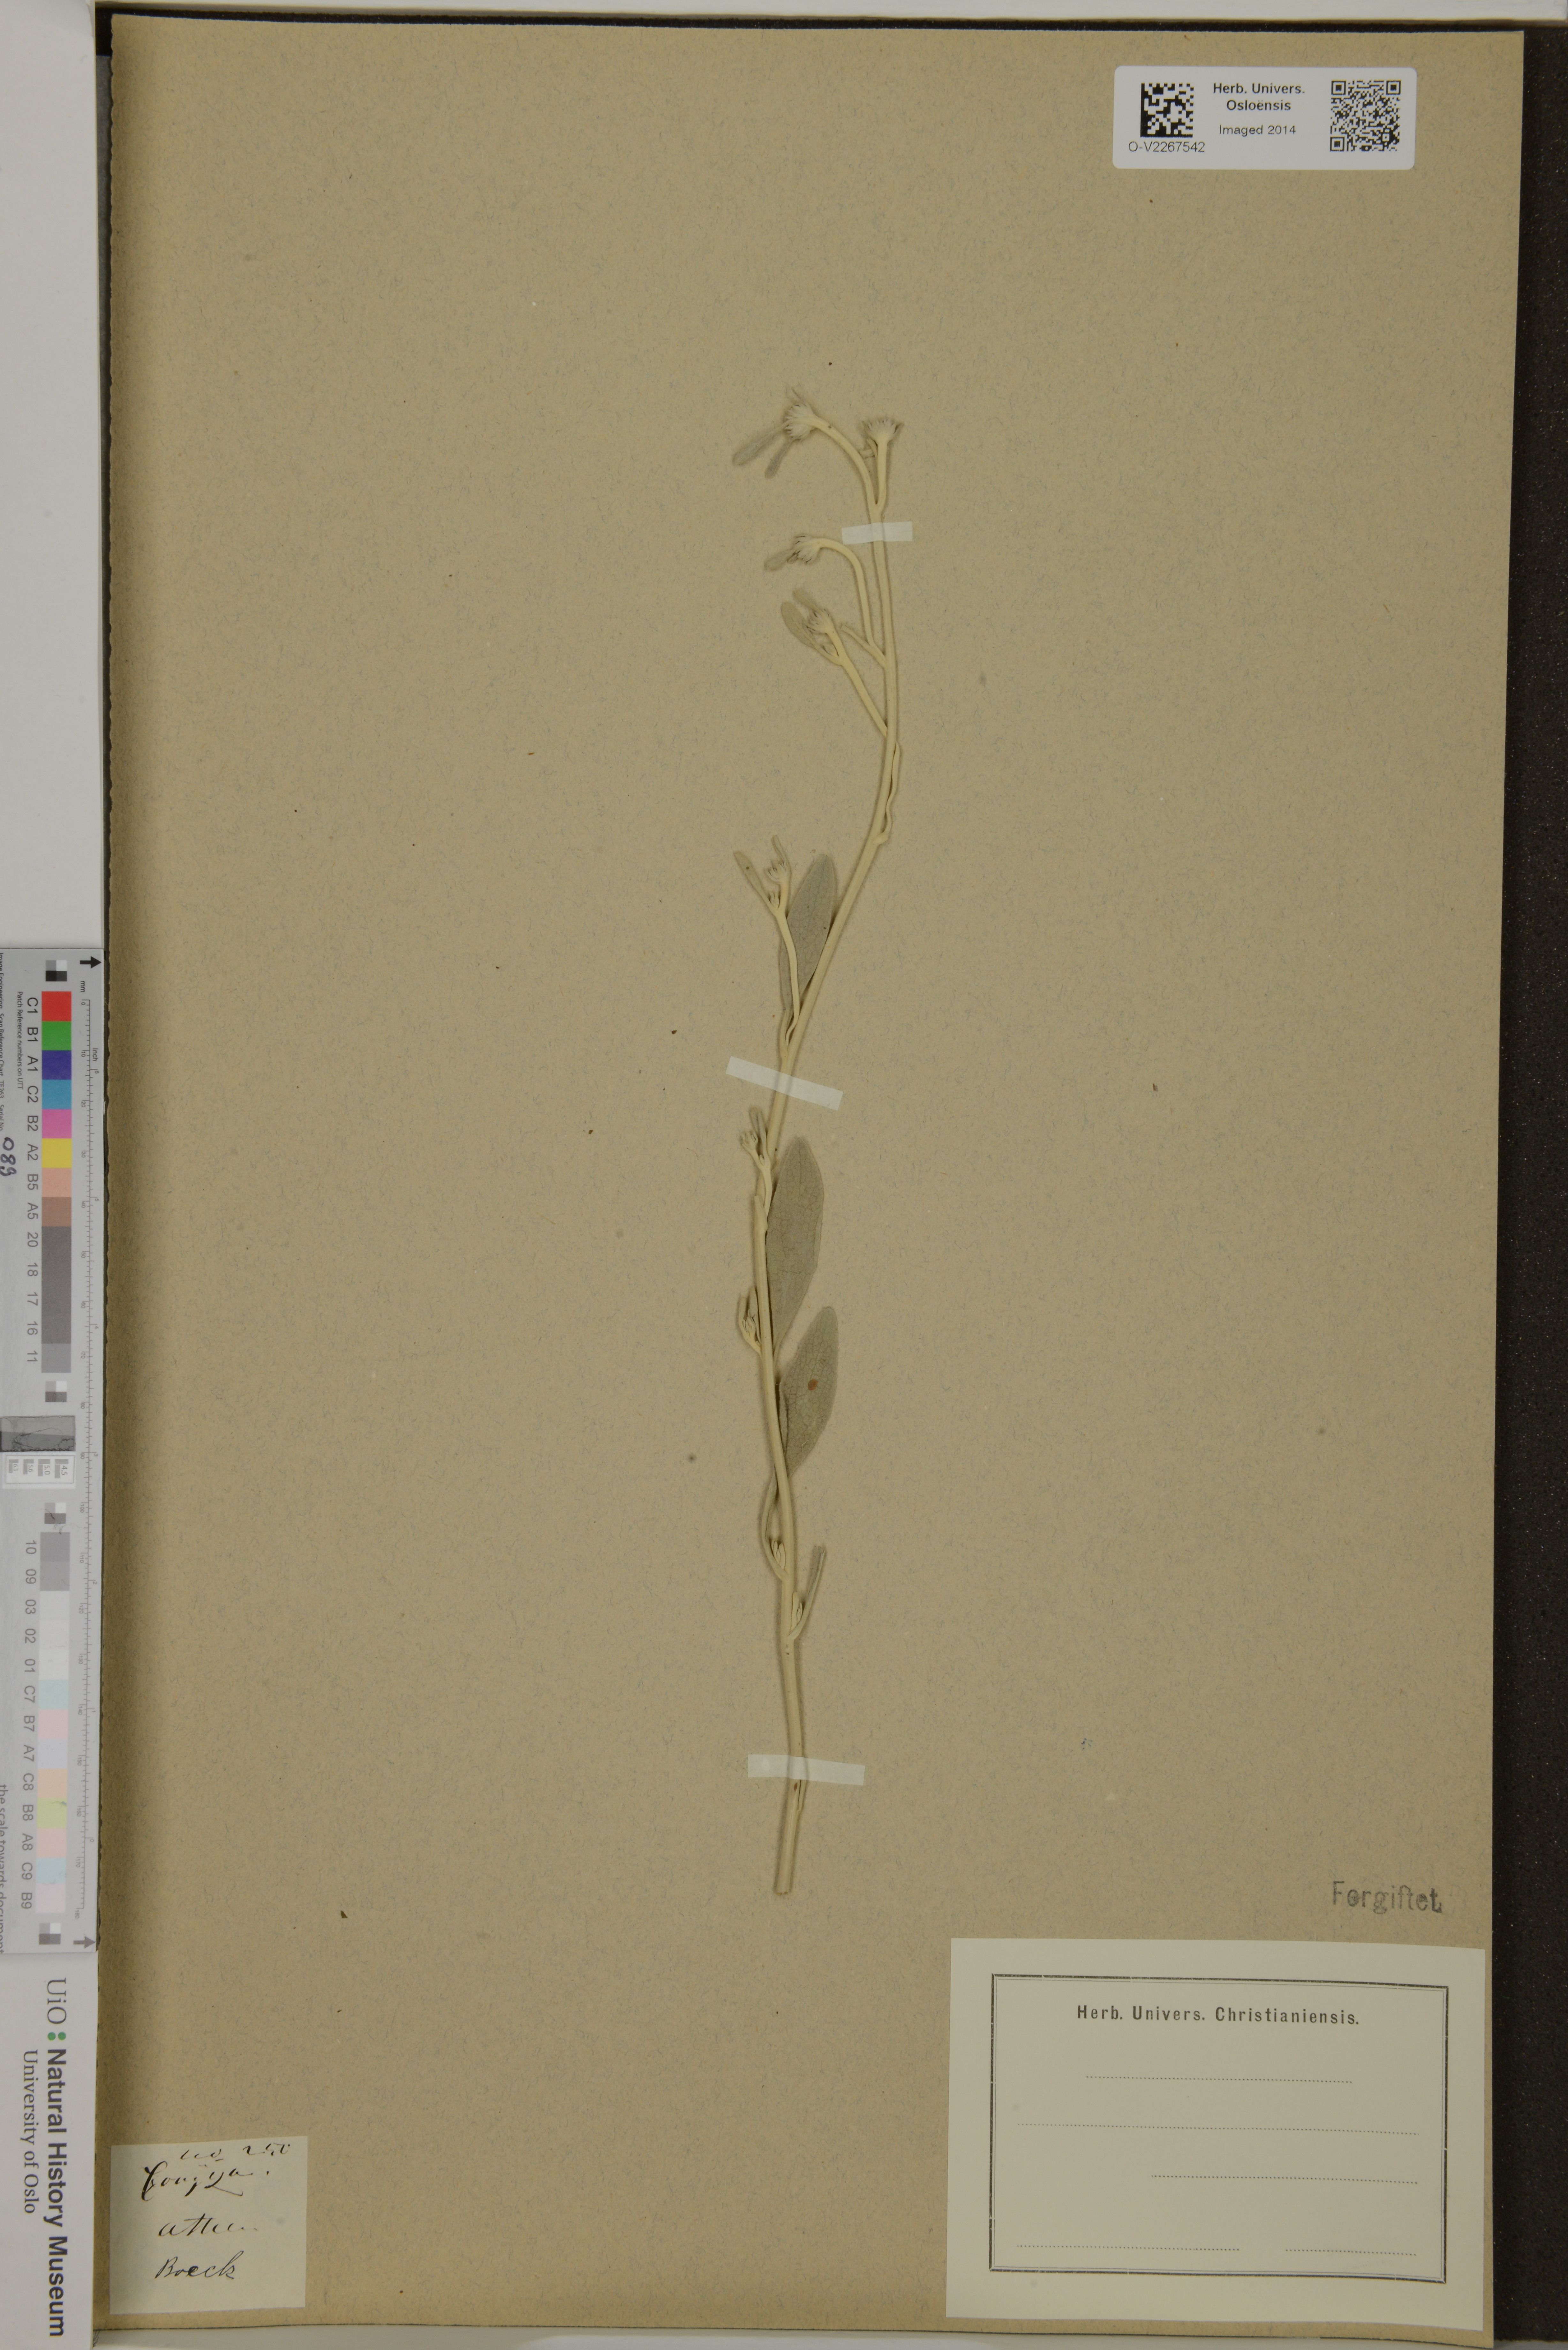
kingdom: Plantae
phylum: Tracheophyta
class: Magnoliopsida
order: Asterales
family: Asteraceae
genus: Conyza
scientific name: Conyza
